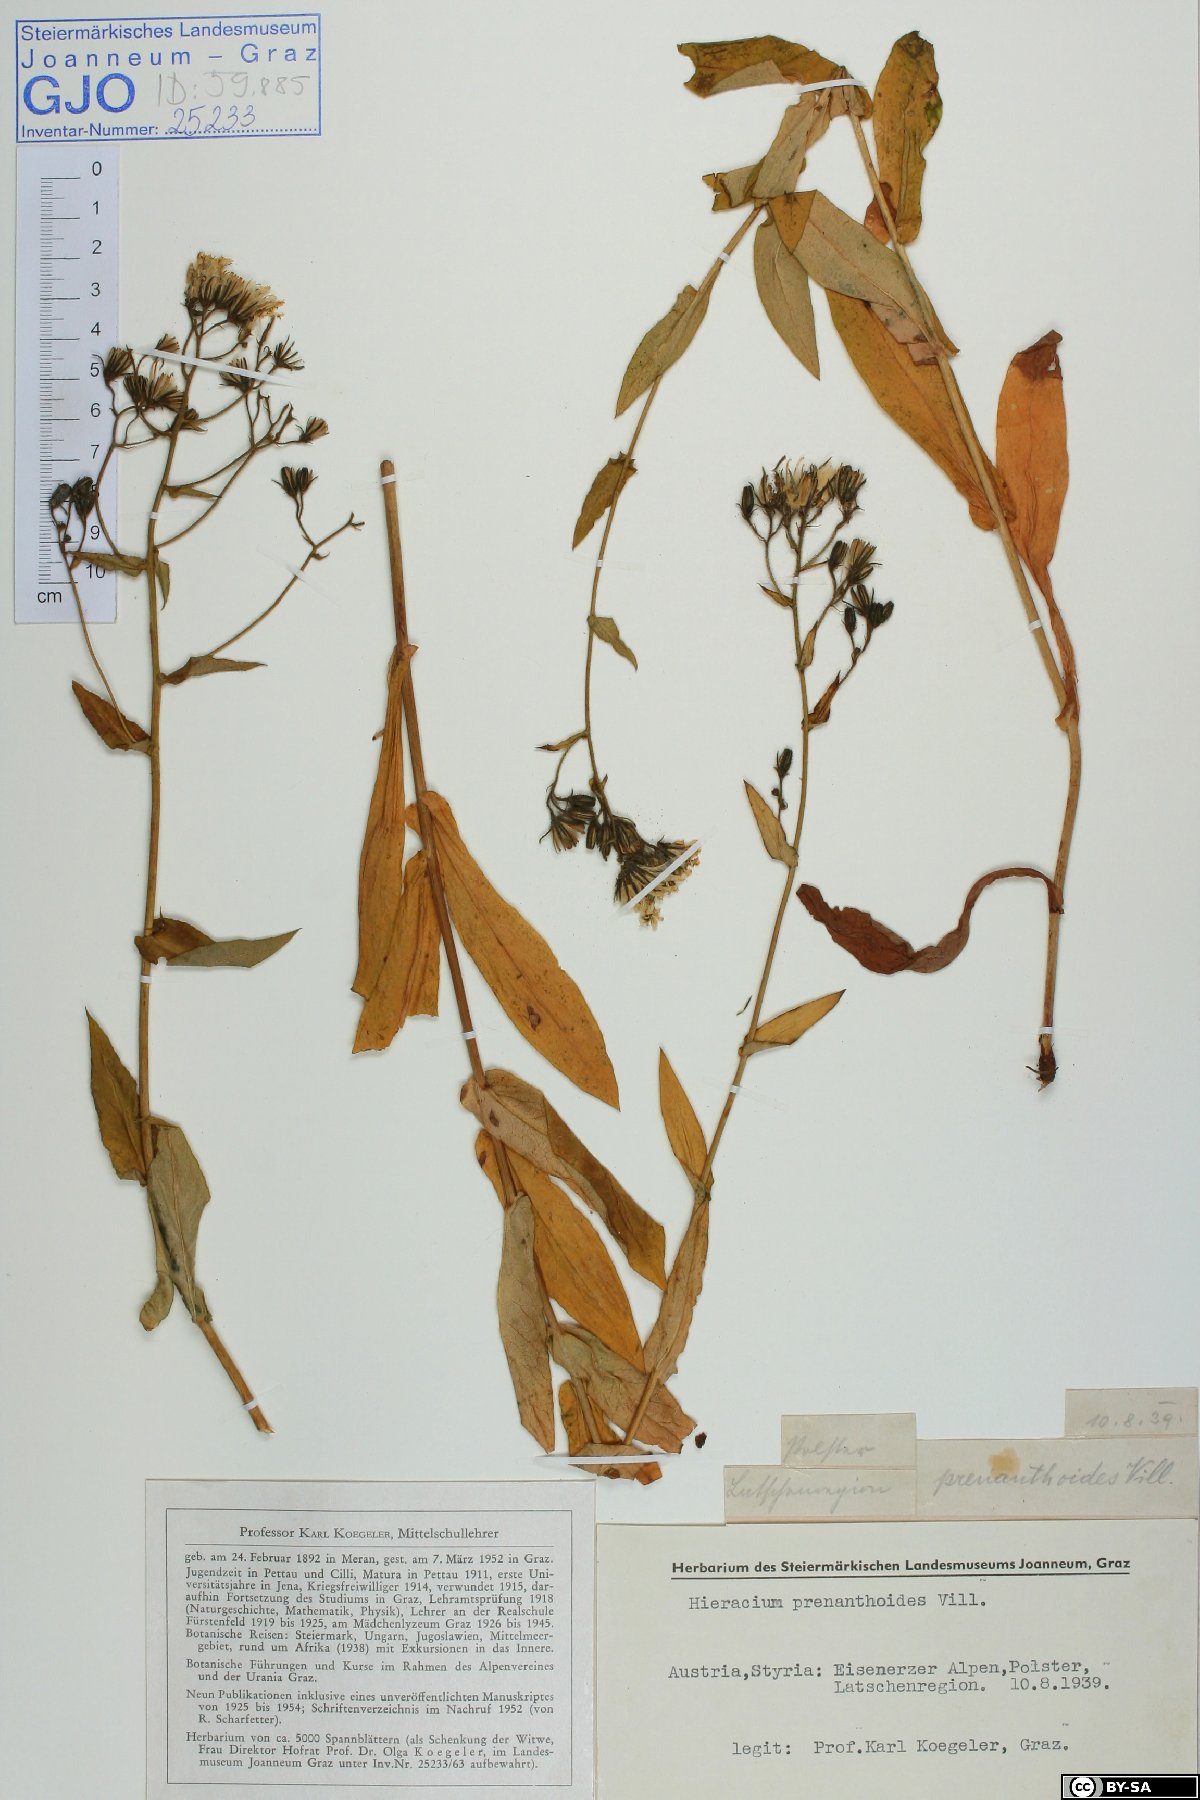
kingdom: Plantae
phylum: Tracheophyta
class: Magnoliopsida
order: Asterales
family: Asteraceae
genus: Hieracium
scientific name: Hieracium prenanthoides
